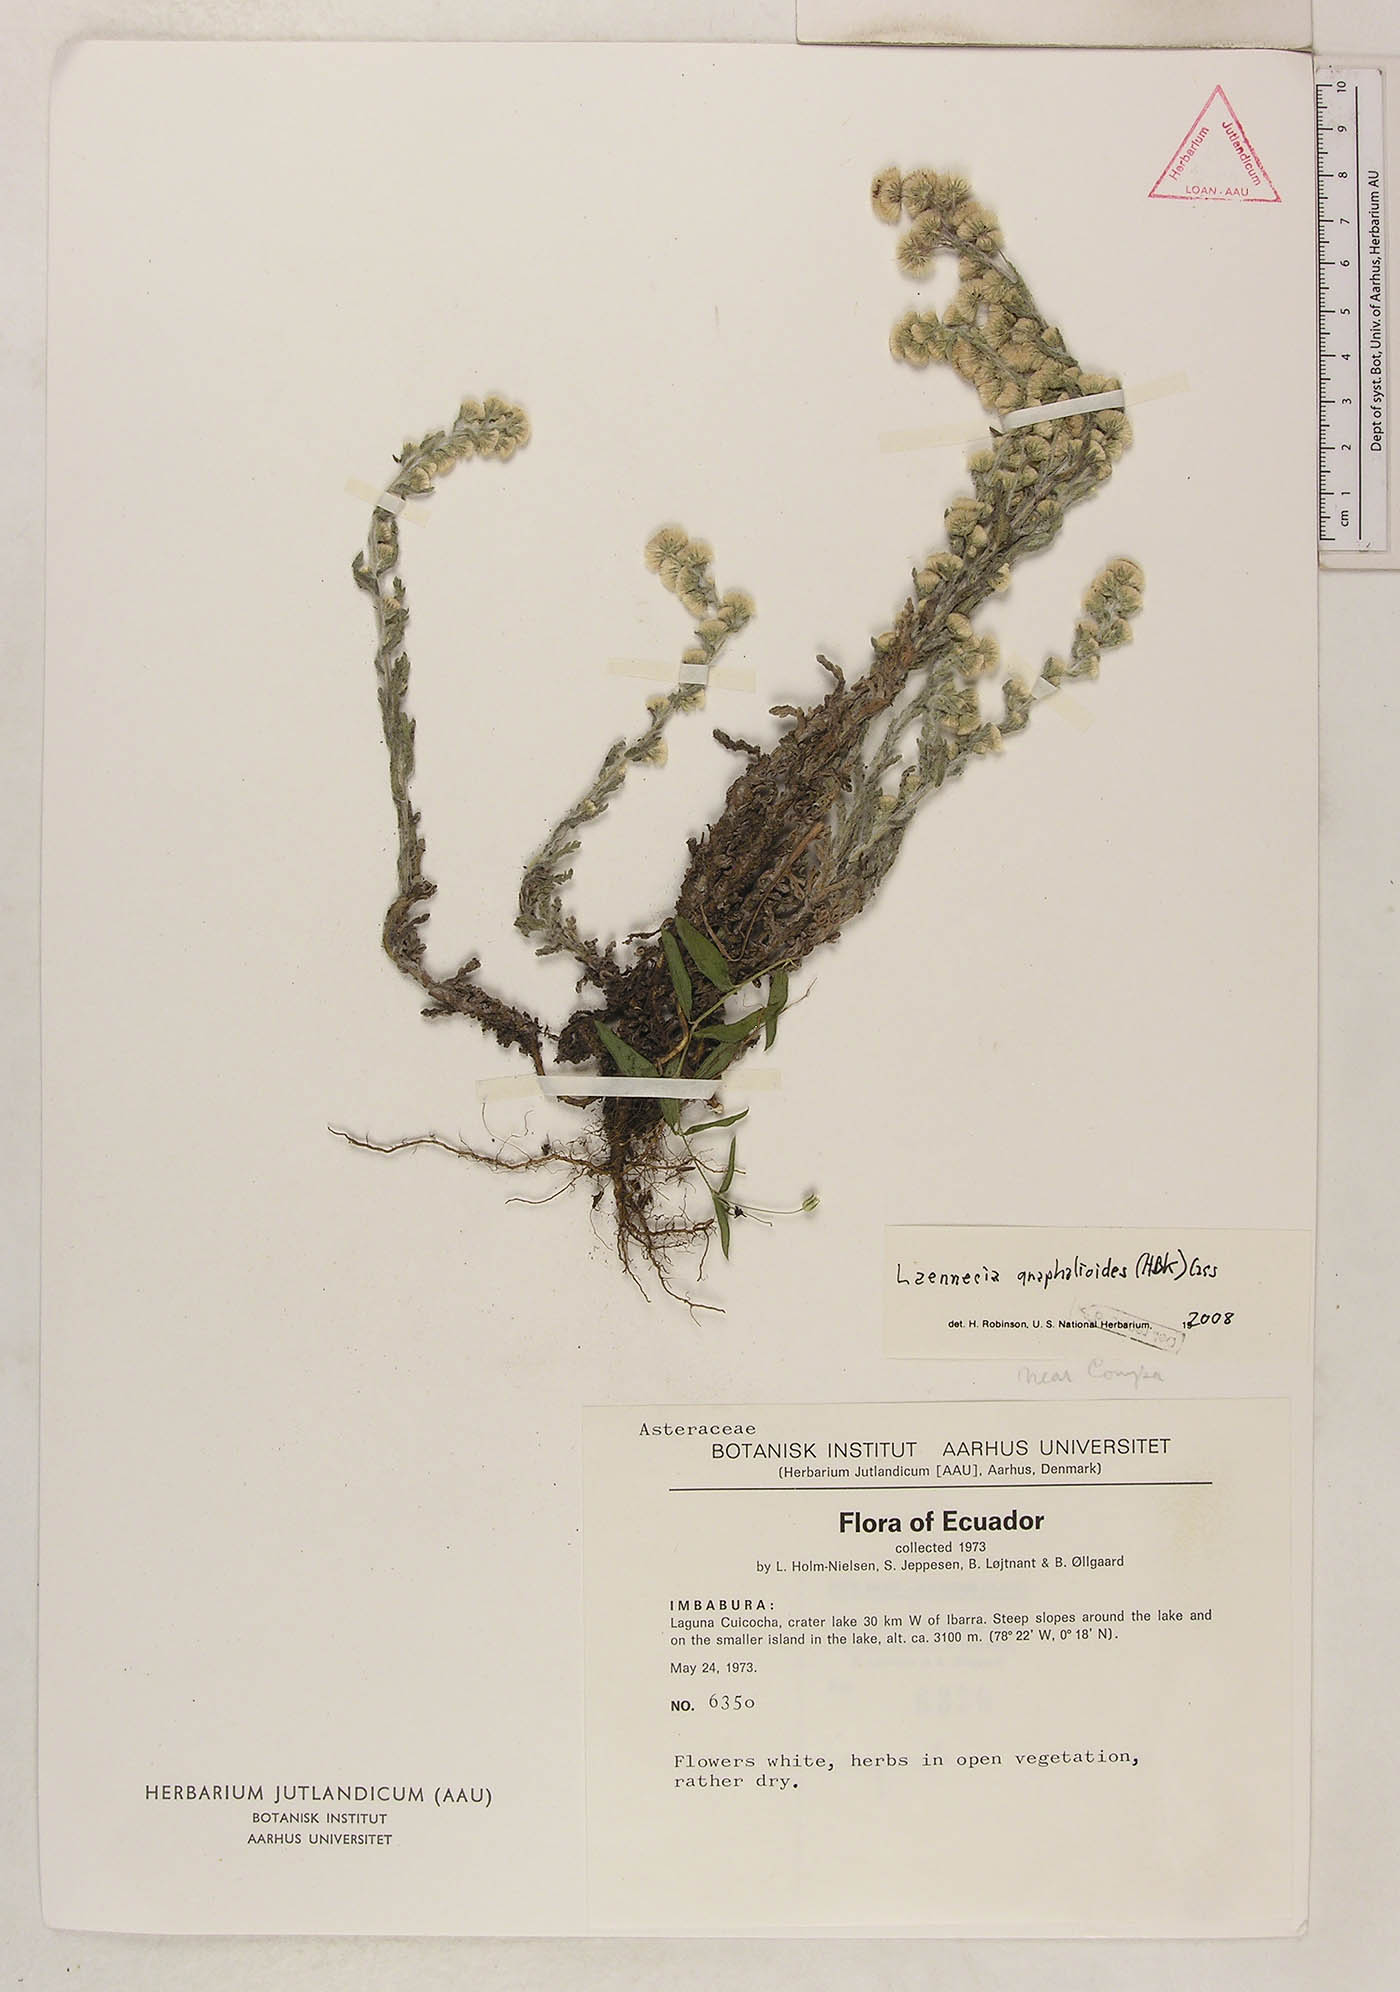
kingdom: Plantae
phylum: Tracheophyta
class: Magnoliopsida
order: Asterales
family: Asteraceae
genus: Laennecia
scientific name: Laennecia gnaphalioides
